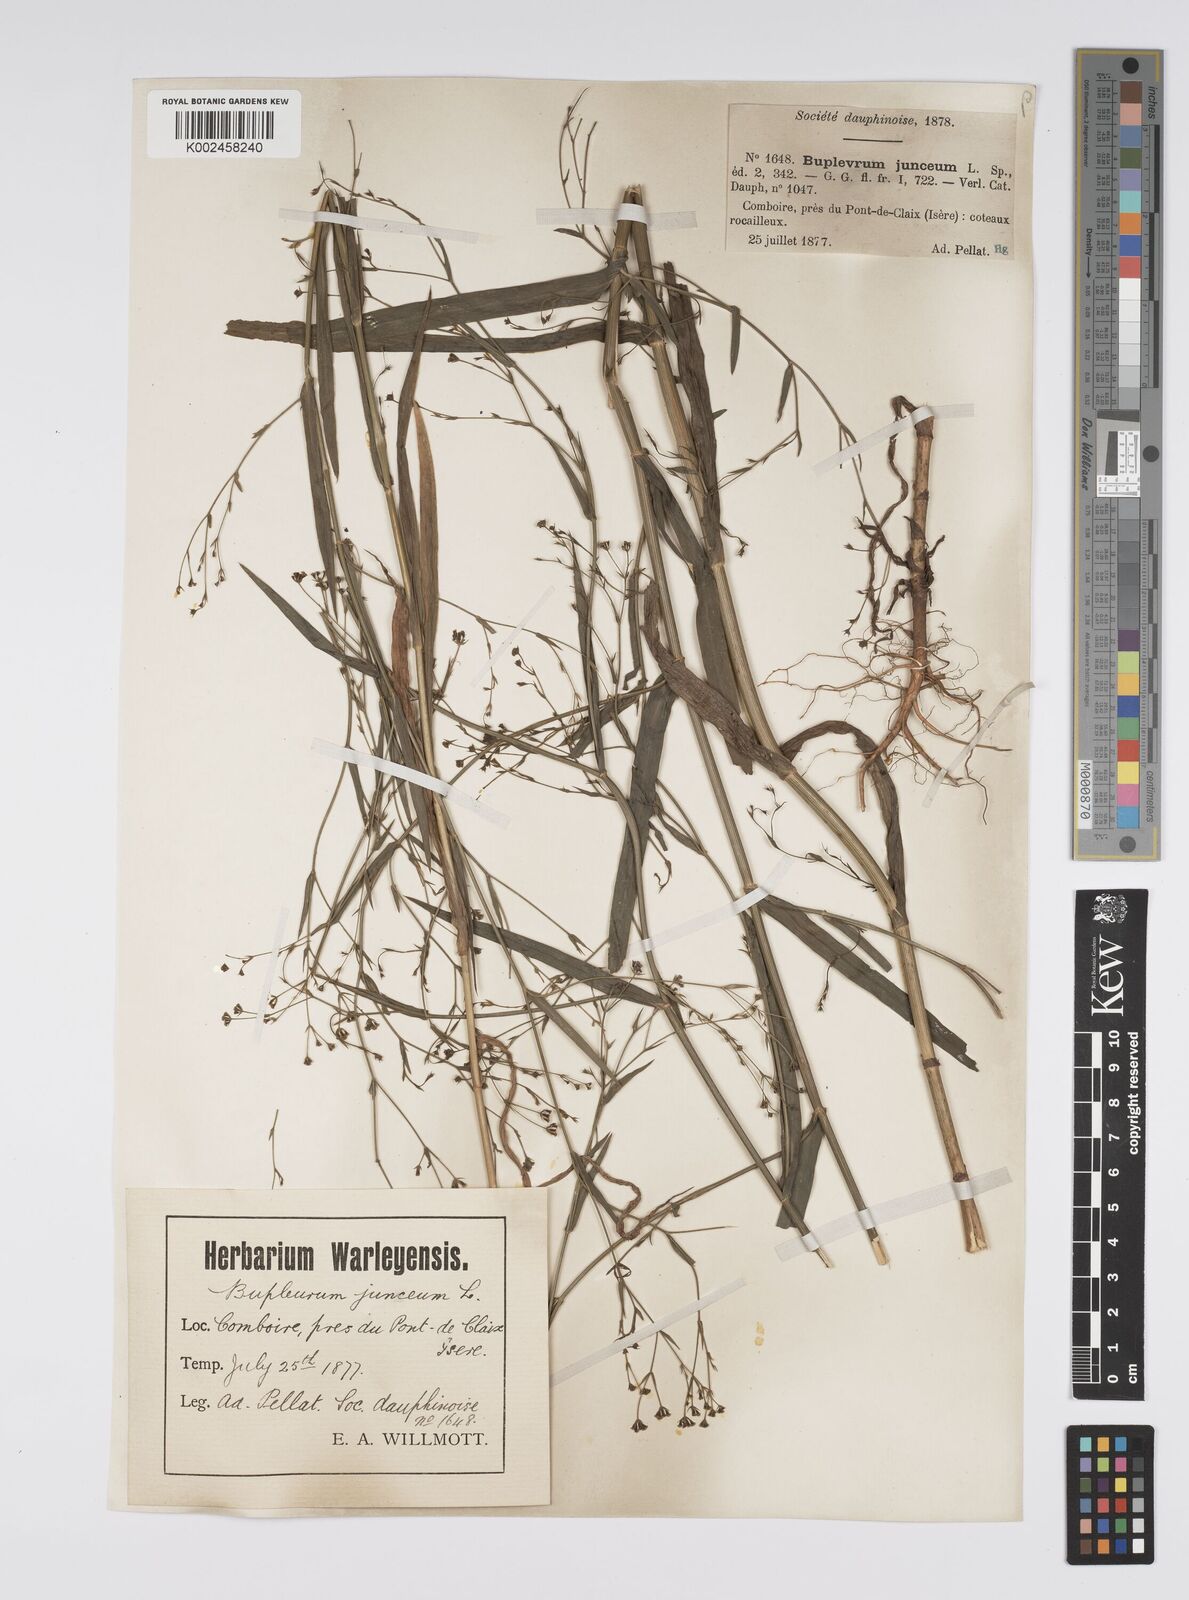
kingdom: Plantae
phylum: Tracheophyta
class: Magnoliopsida
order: Apiales
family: Apiaceae
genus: Bupleurum
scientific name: Bupleurum praealtum
